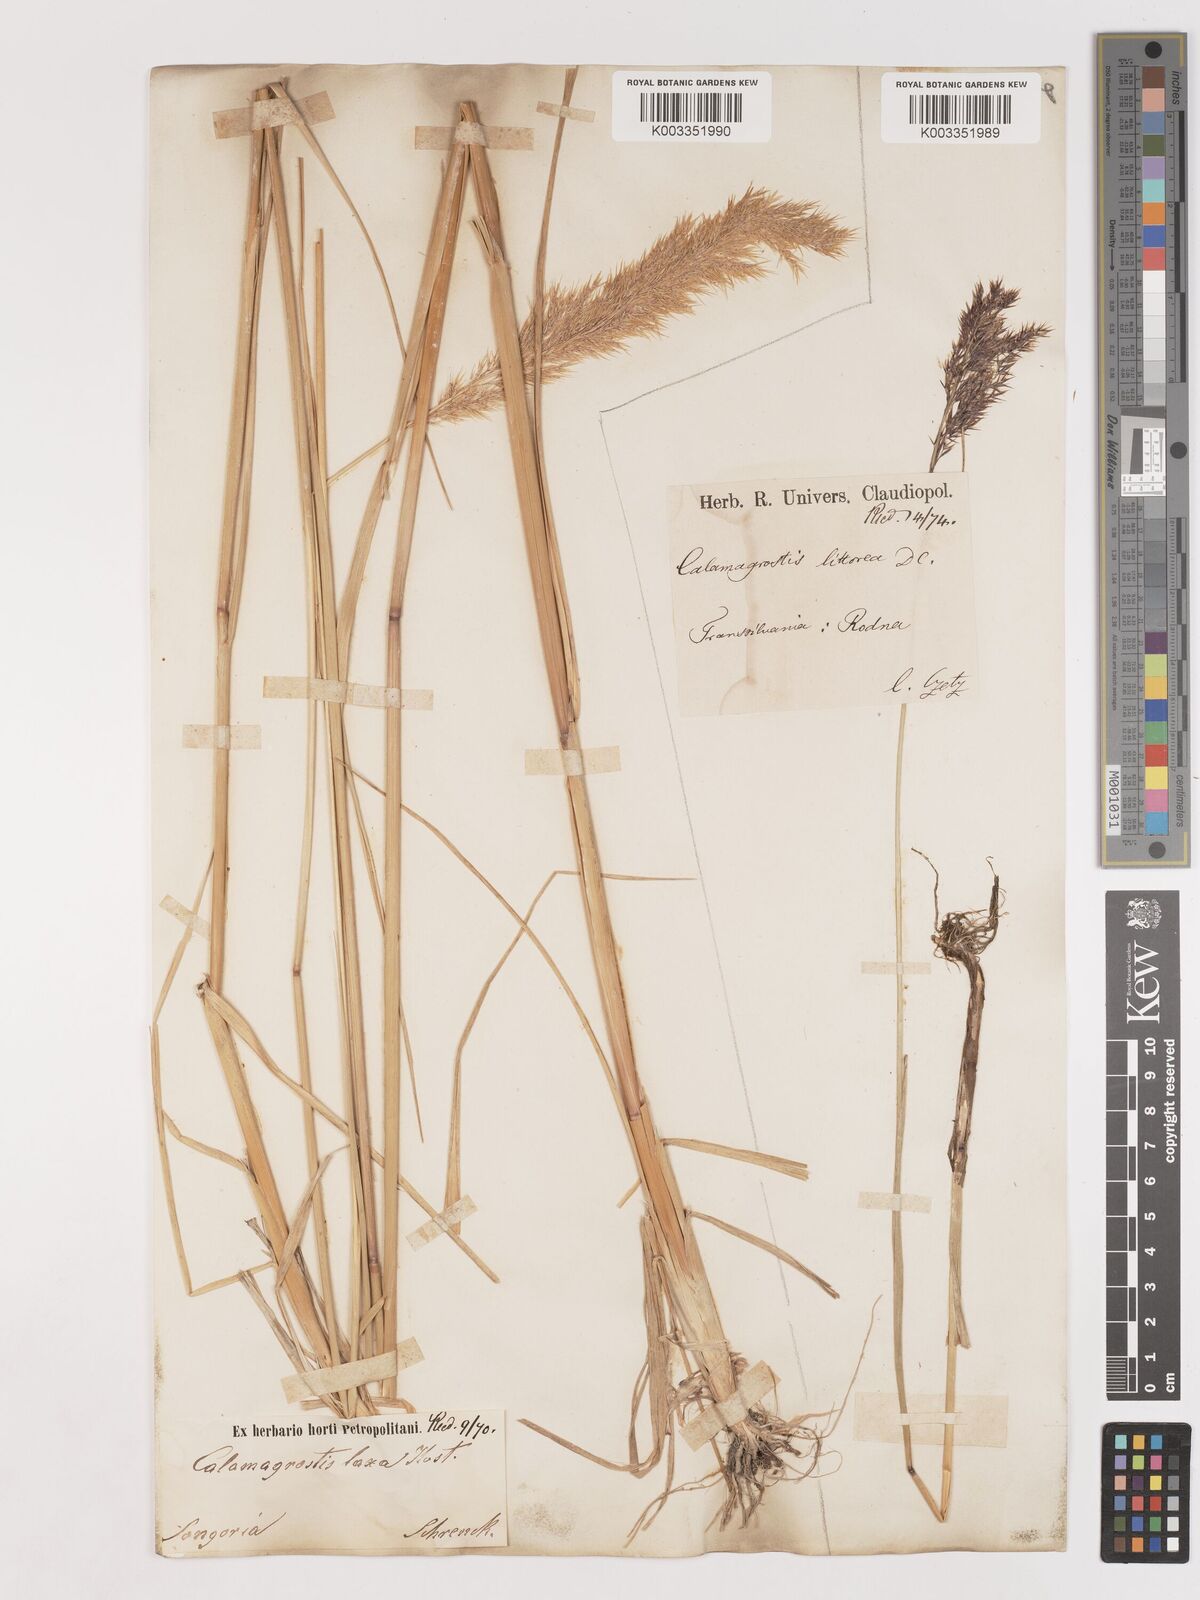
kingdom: Plantae
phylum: Tracheophyta
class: Liliopsida
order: Poales
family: Poaceae
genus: Calamagrostis
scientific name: Calamagrostis pseudophragmites
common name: Coastal small-reed
